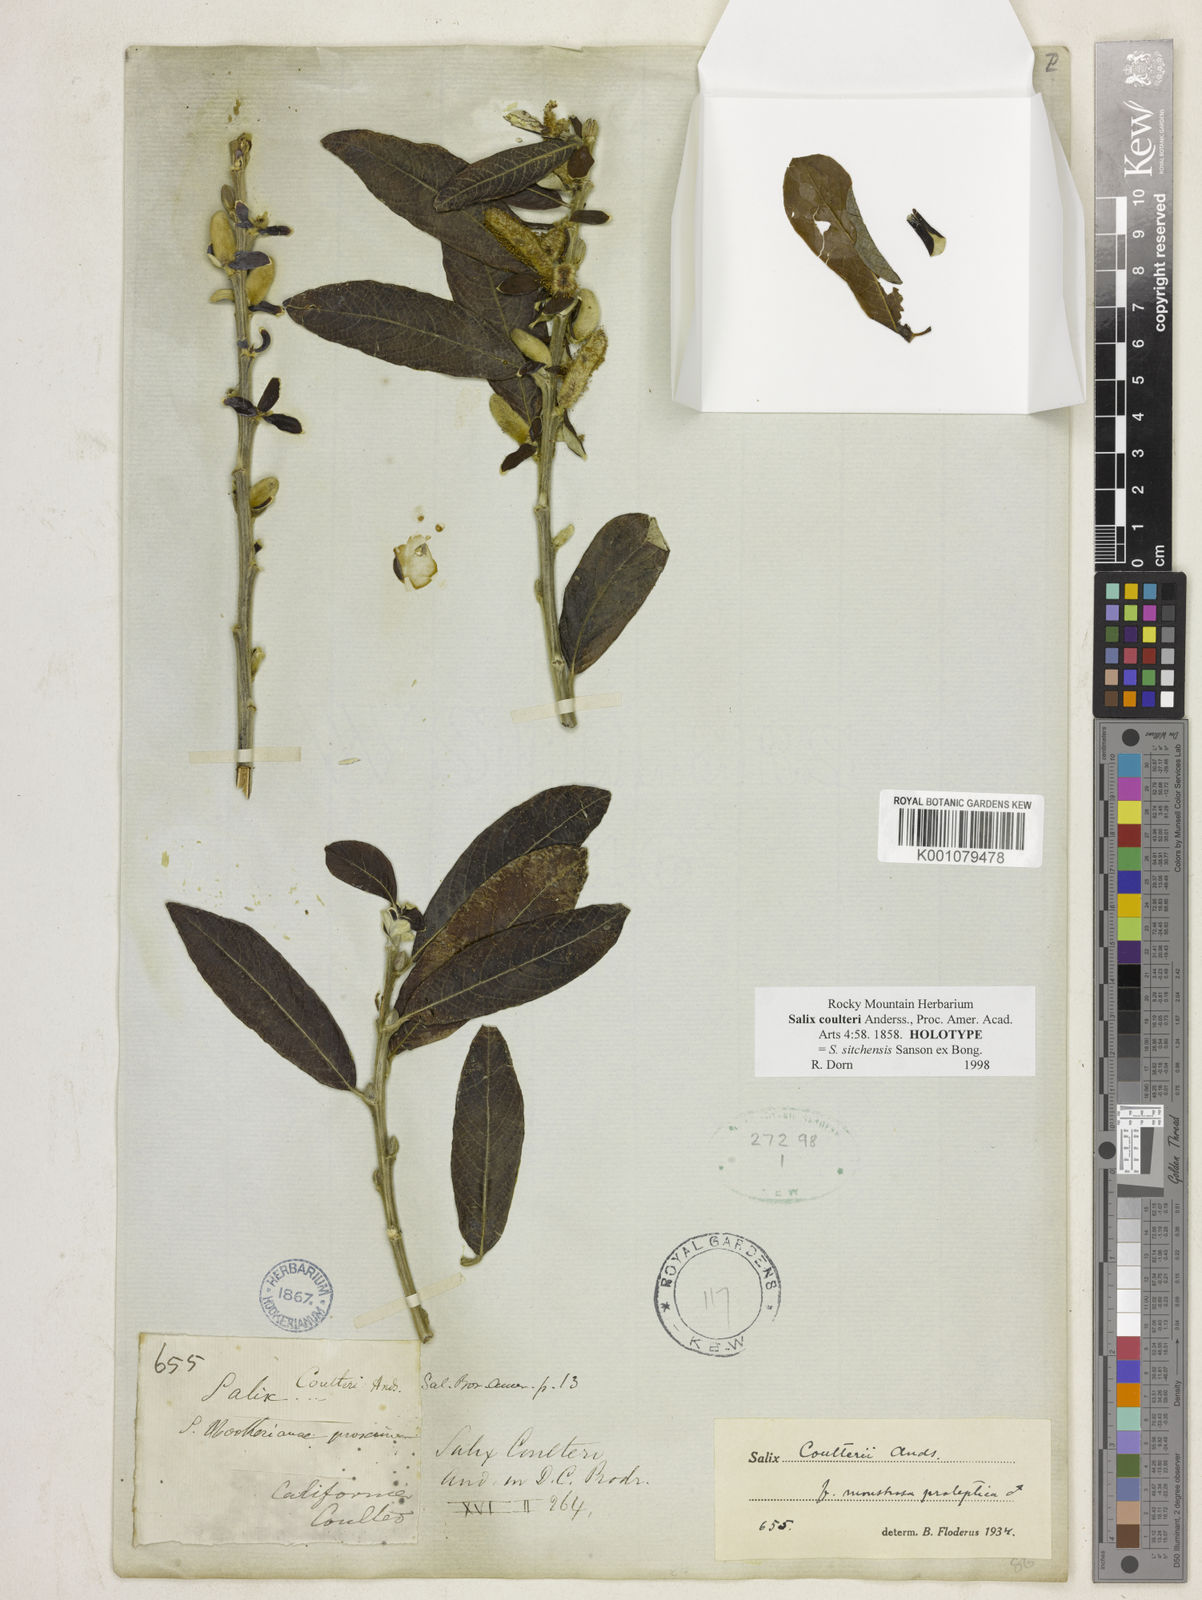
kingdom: Plantae
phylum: Tracheophyta
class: Magnoliopsida
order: Malpighiales
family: Salicaceae
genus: Salix
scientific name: Salix sitchensis
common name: Sitka willow
